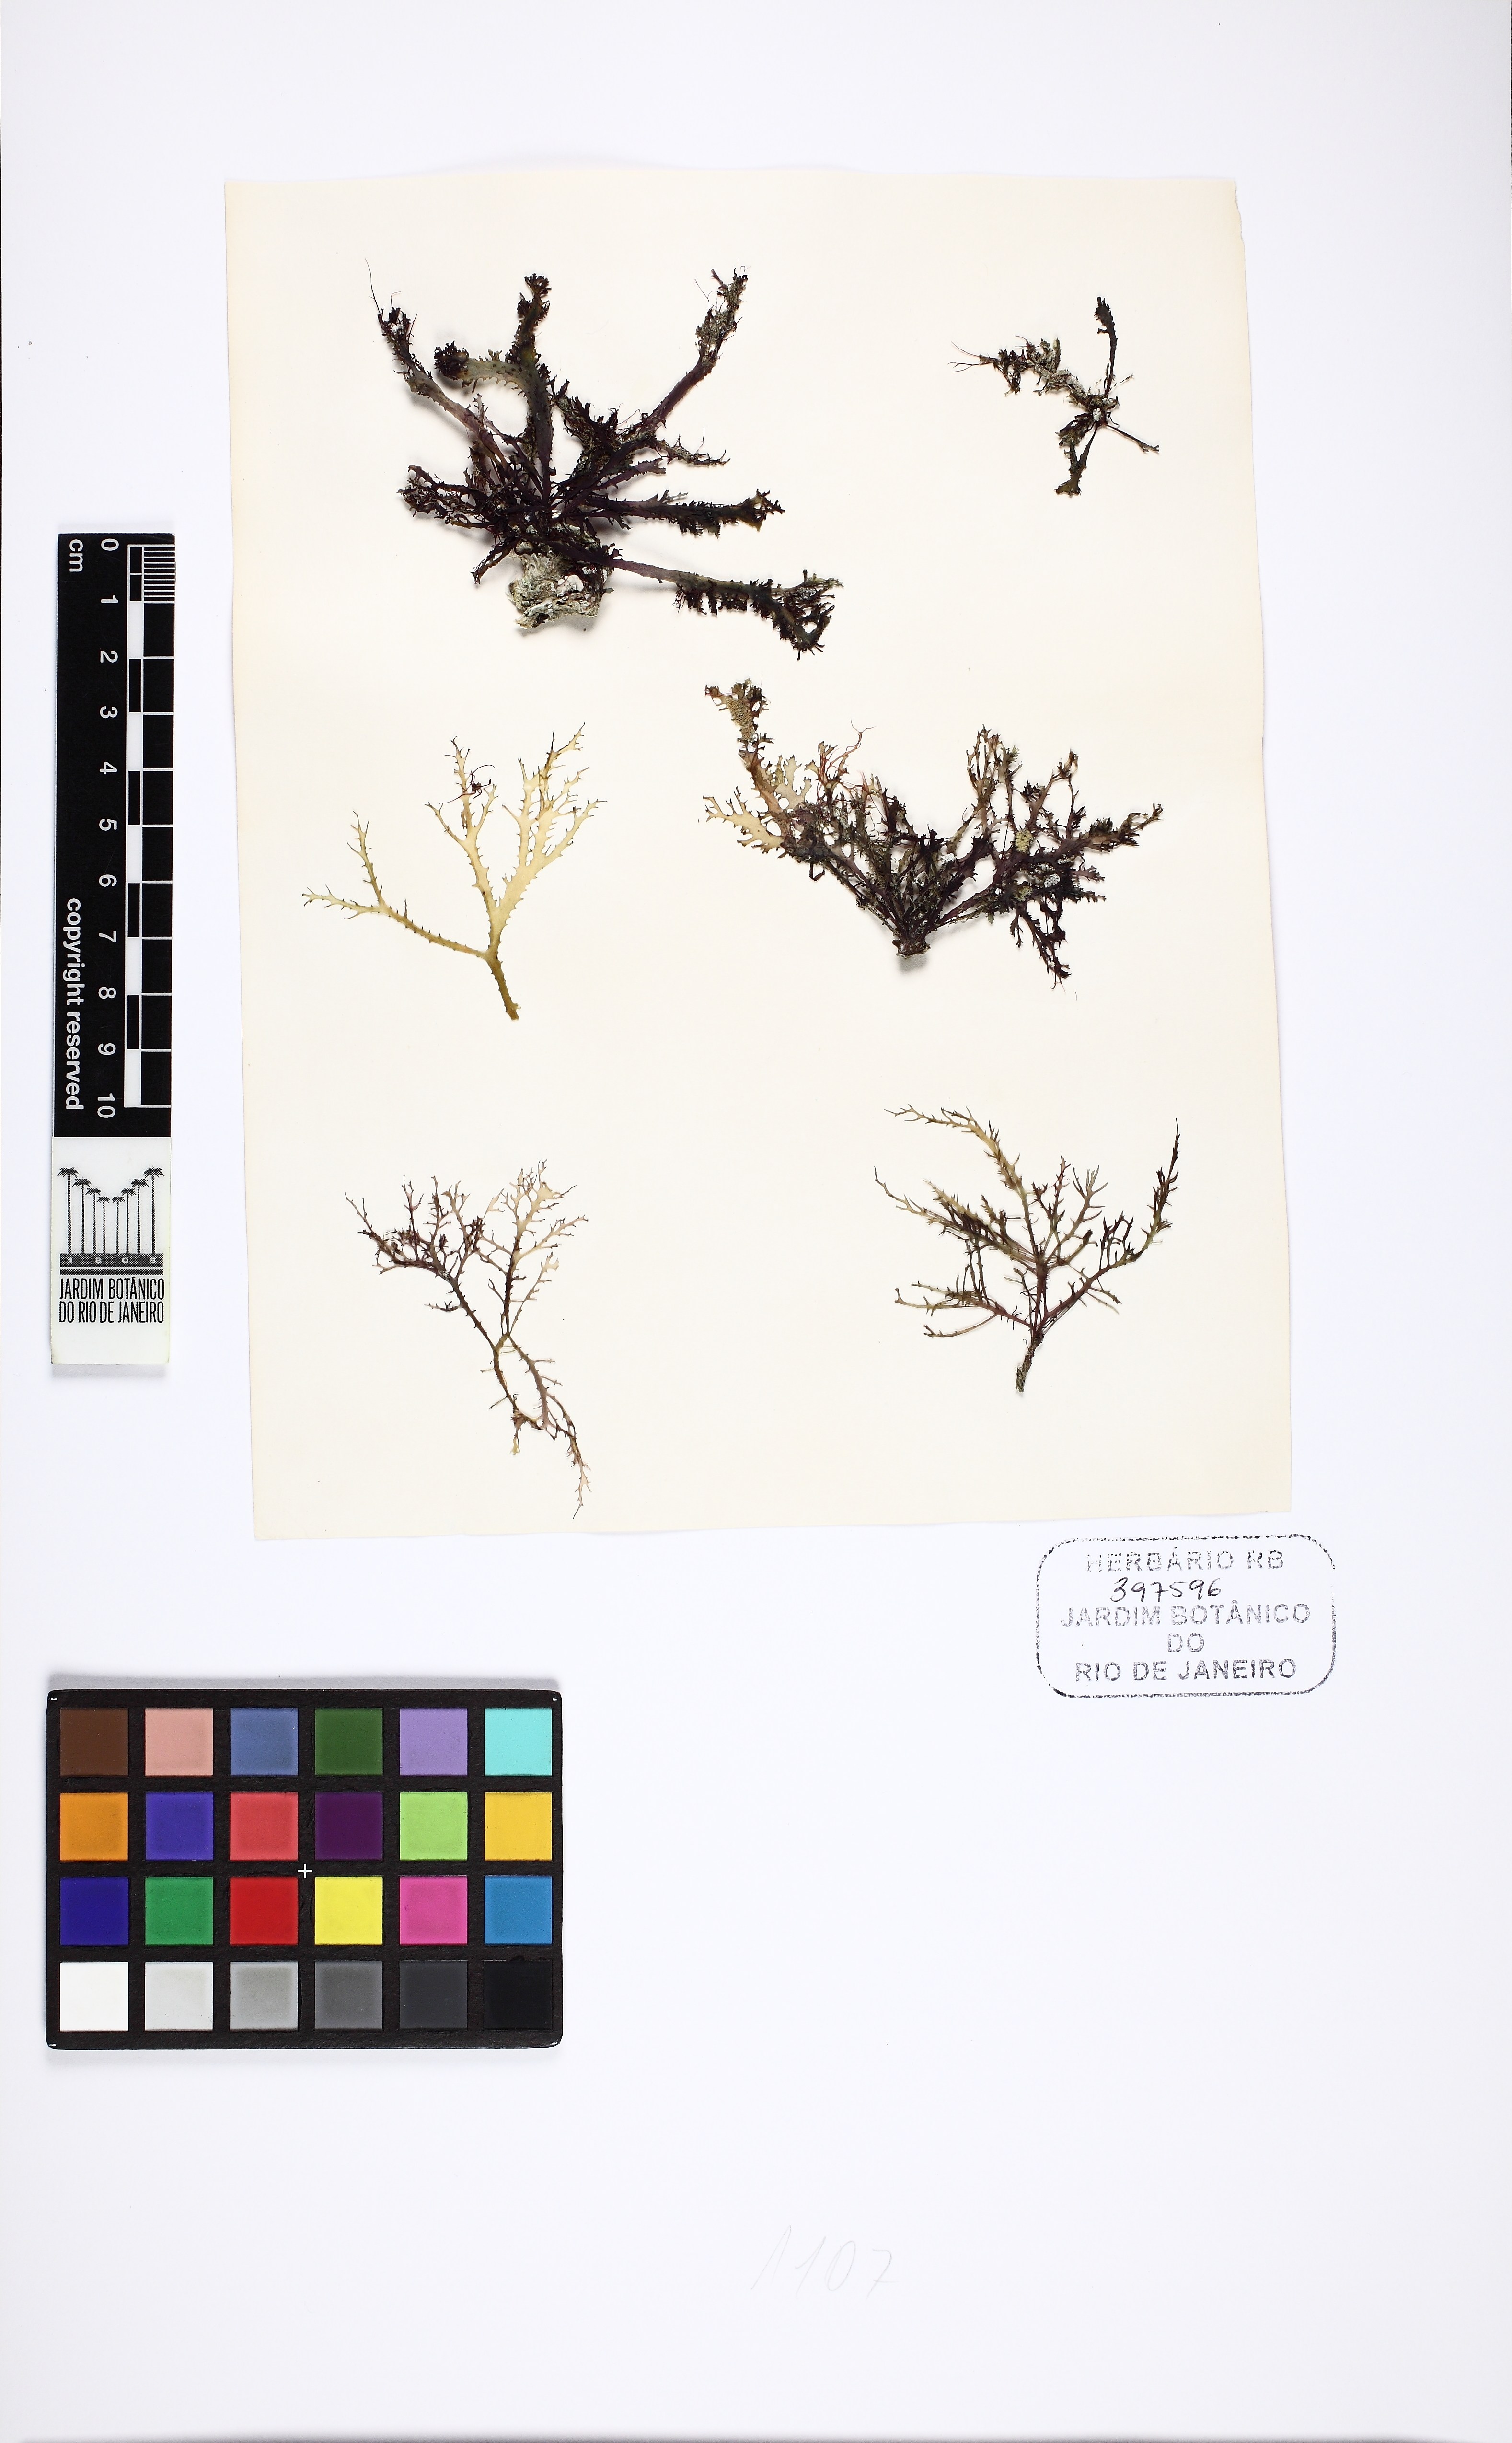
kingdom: Plantae
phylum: Rhodophyta
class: Florideophyceae
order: Gracilariales
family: Gracilariaceae
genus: Gracilaria
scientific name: Gracilaria cervicornis
